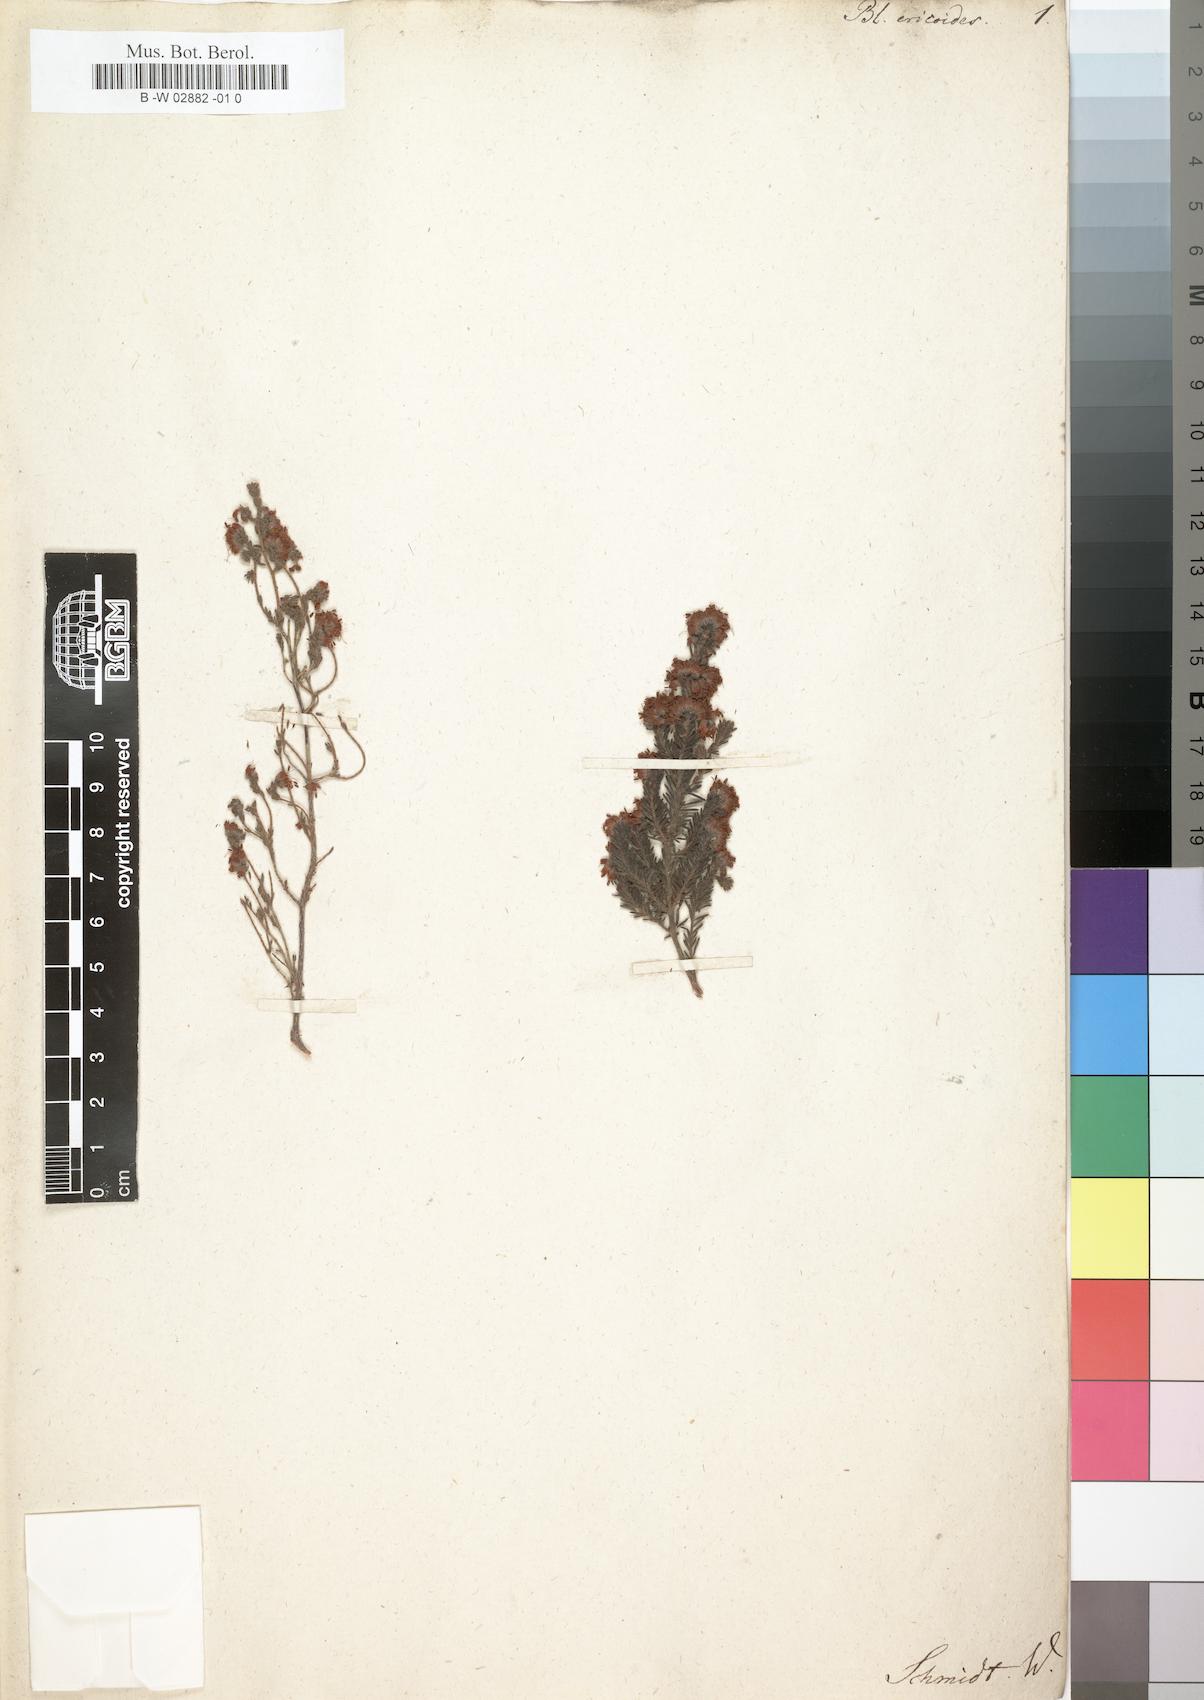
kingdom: Plantae
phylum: Tracheophyta
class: Magnoliopsida
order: Ericales
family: Ericaceae
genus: Erica
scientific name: Erica ericoides
